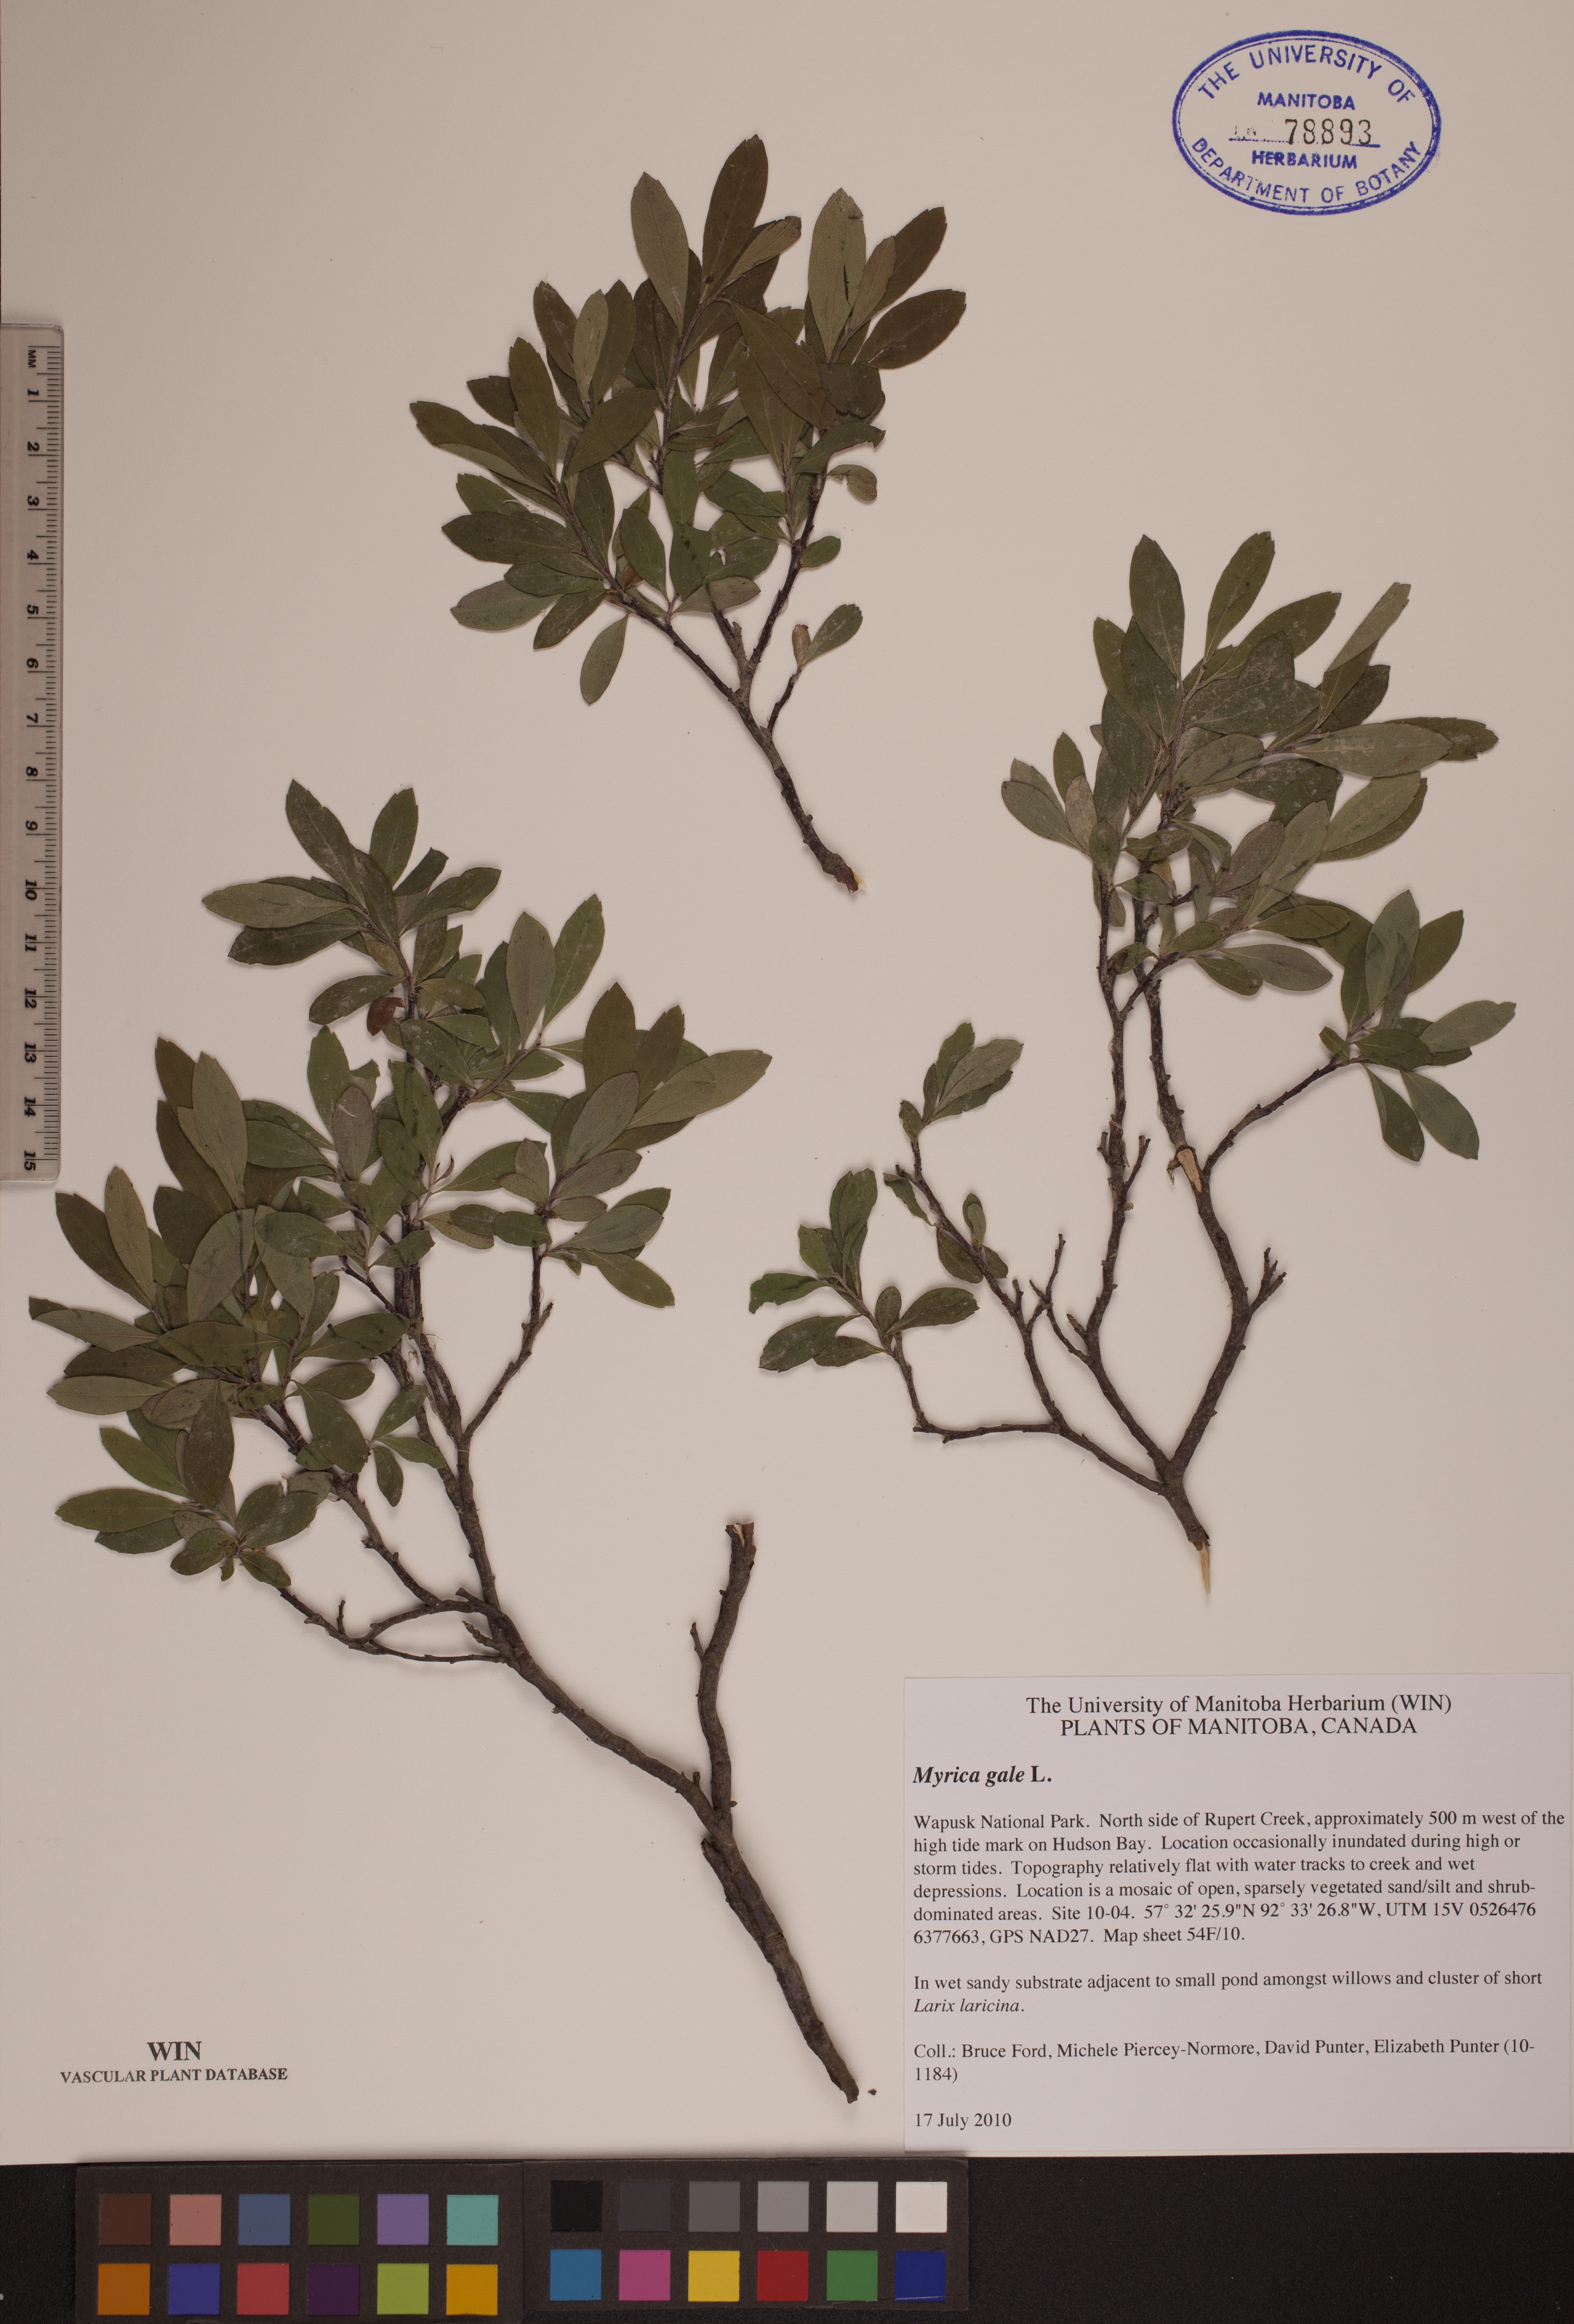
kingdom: Plantae
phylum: Tracheophyta
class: Magnoliopsida
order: Fagales
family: Myricaceae
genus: Myrica
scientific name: Myrica gale
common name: Sweet gale
